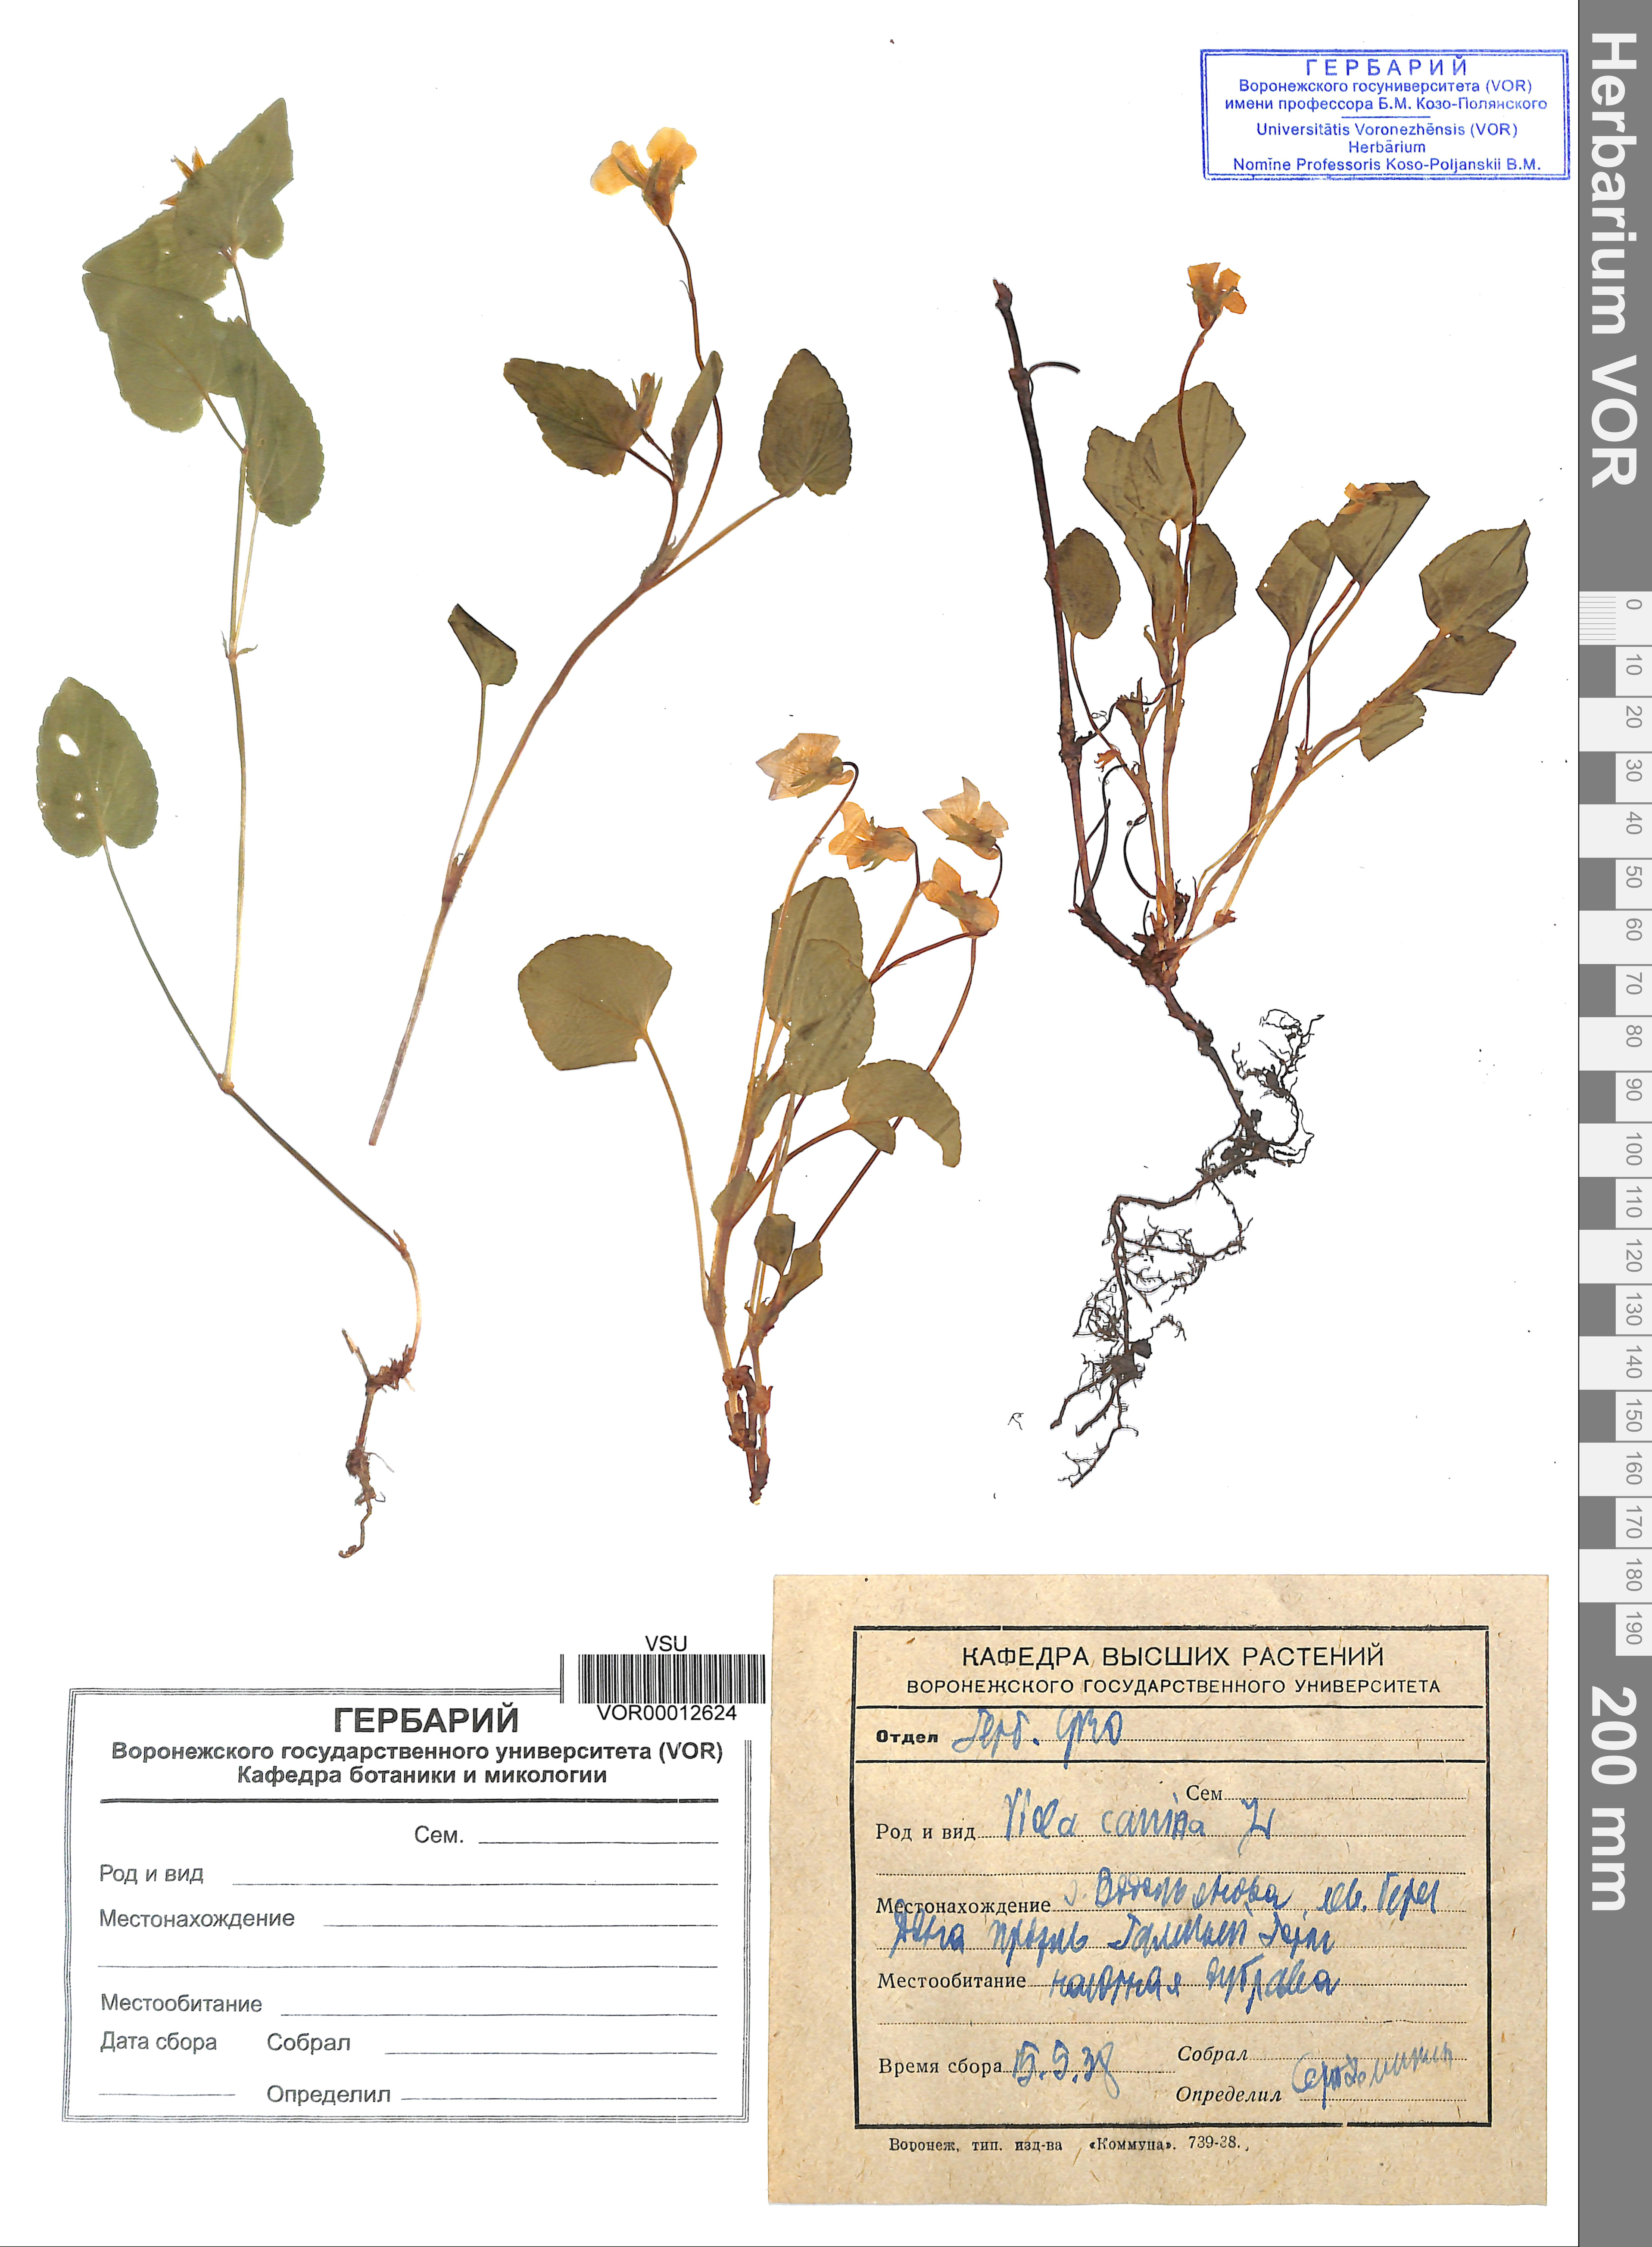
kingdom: Plantae
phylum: Tracheophyta
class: Magnoliopsida
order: Malpighiales
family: Violaceae
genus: Viola
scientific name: Viola canina
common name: Heath dog-violet
